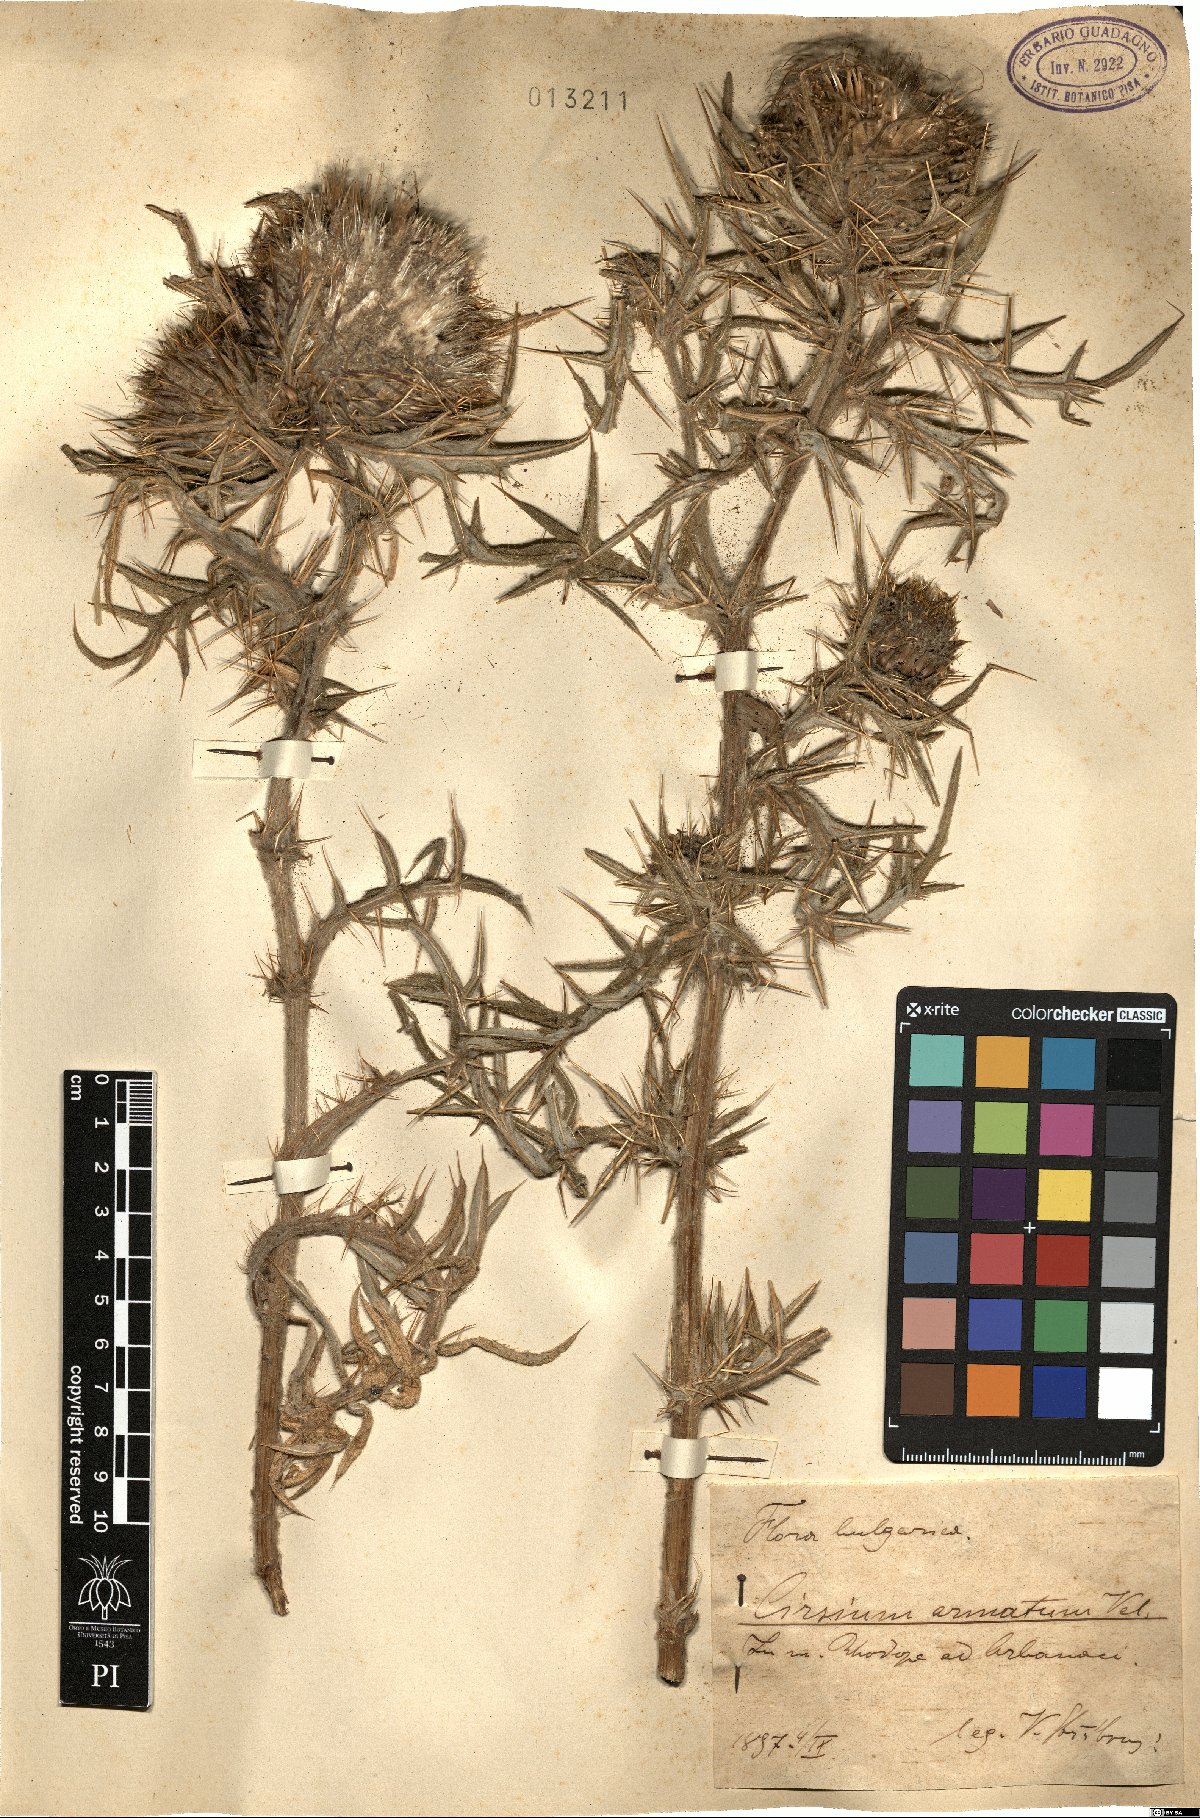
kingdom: Plantae
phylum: Tracheophyta
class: Magnoliopsida
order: Asterales
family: Asteraceae
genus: Lophiolepis
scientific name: Lophiolepis ligularis
